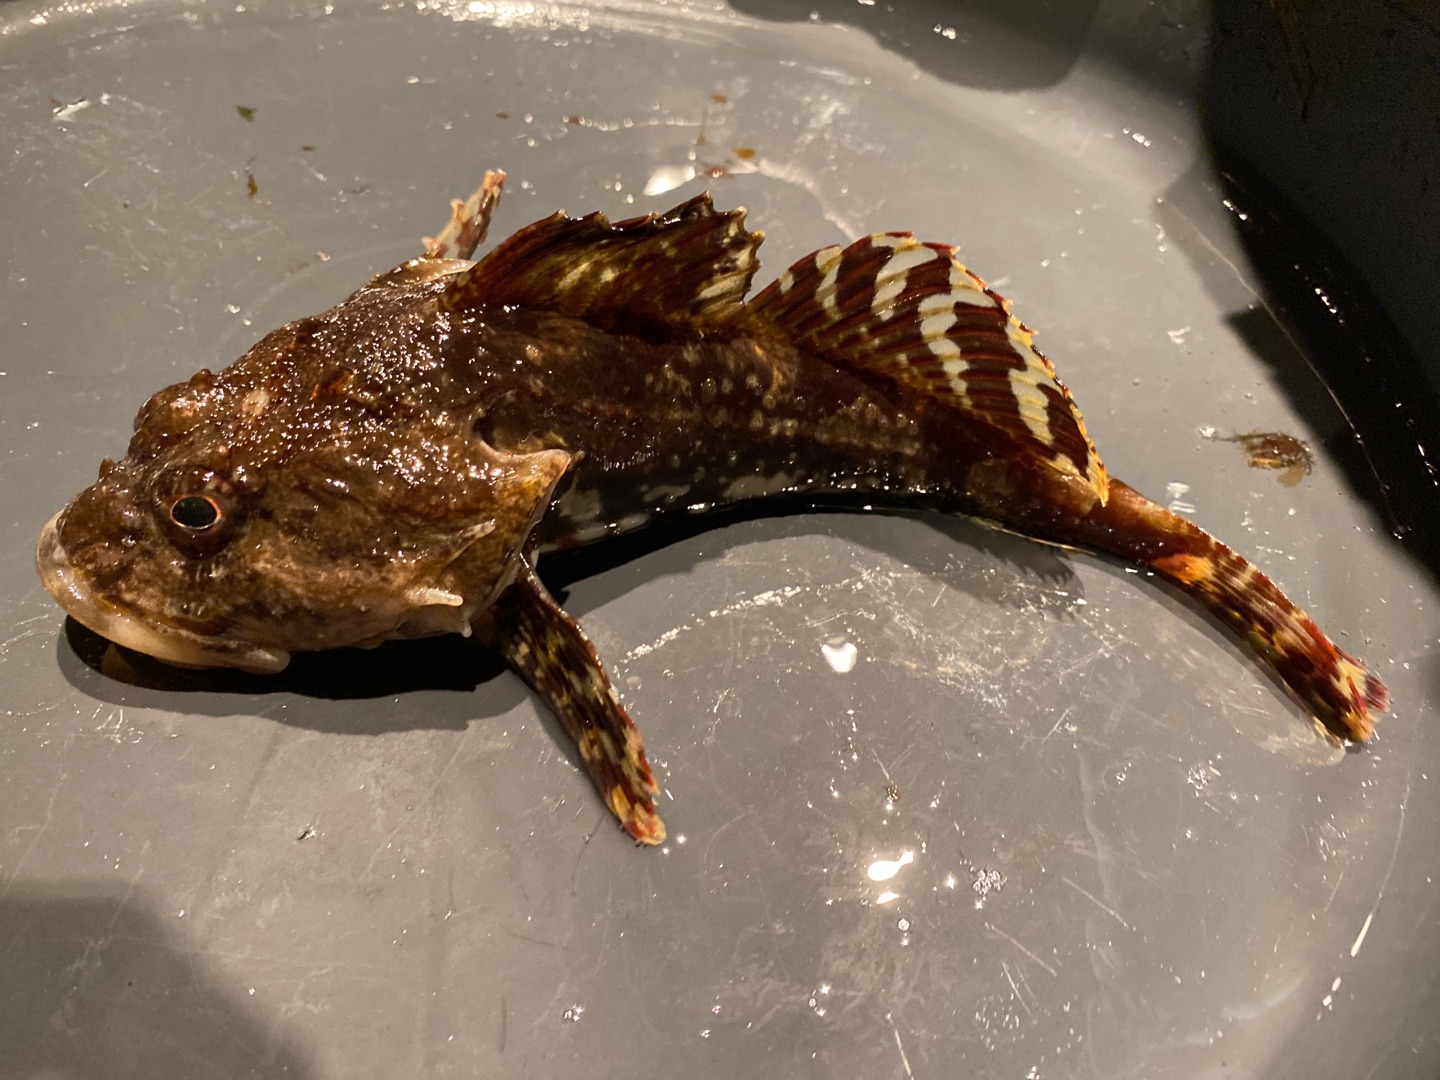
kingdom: Animalia
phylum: Chordata
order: Scorpaeniformes
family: Cottidae
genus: Myoxocephalus
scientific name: Myoxocephalus scorpius
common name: Almindelig ulk
